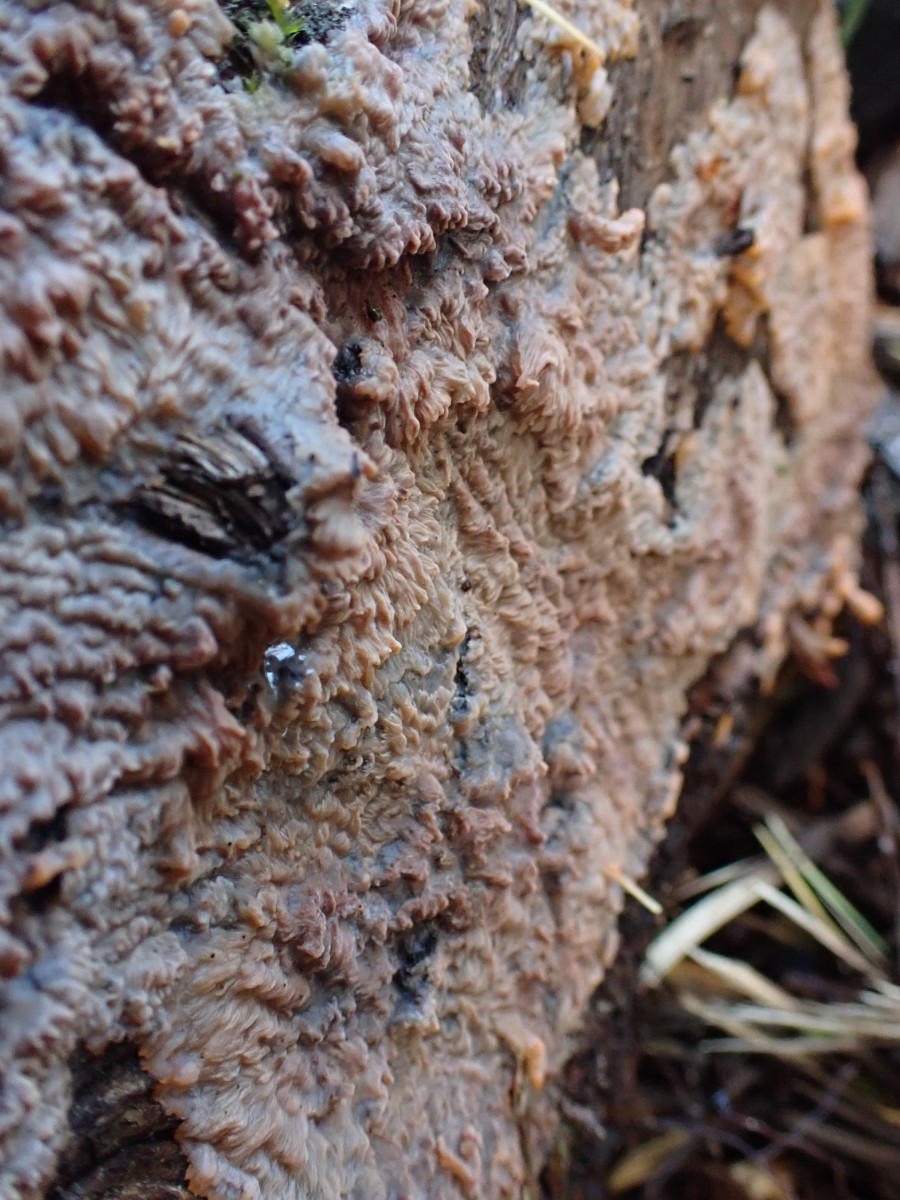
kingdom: Fungi
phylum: Basidiomycota
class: Agaricomycetes
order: Polyporales
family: Meruliaceae
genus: Phlebia
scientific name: Phlebia radiata
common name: stråle-åresvamp
